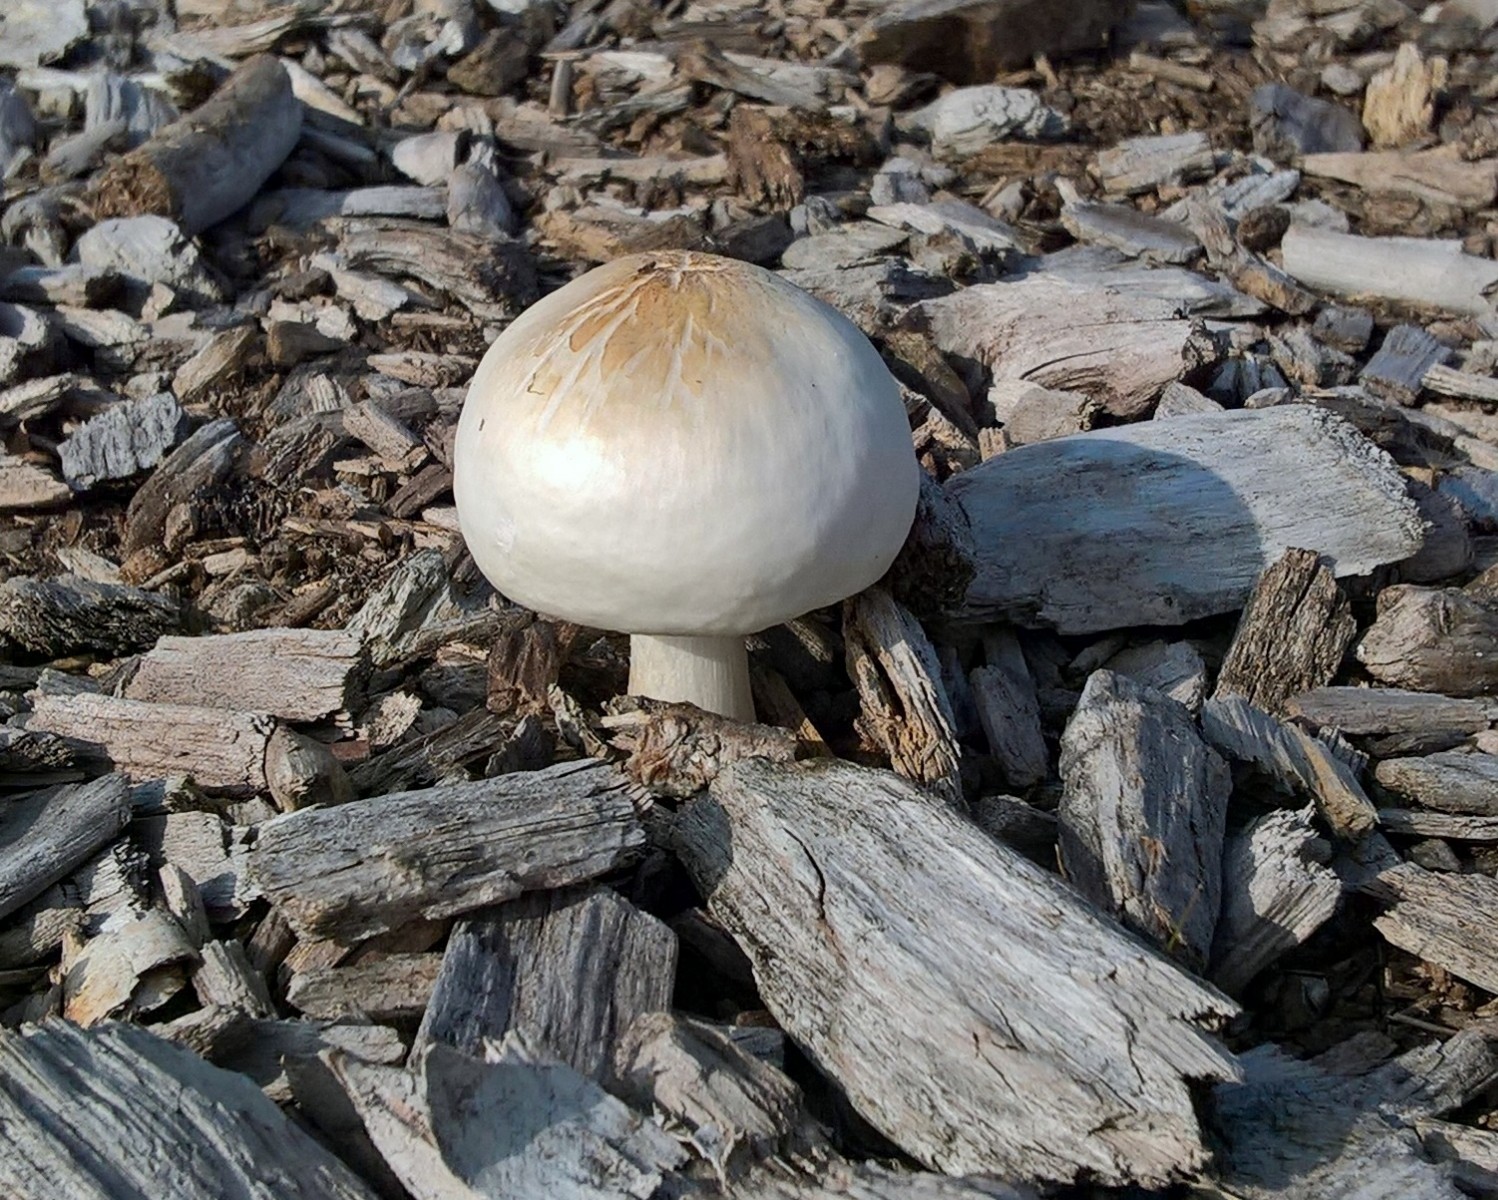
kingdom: Fungi
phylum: Basidiomycota
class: Agaricomycetes
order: Agaricales
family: Pluteaceae
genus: Pluteus
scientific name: Pluteus petasatus
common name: savsmulds-skærmhat
